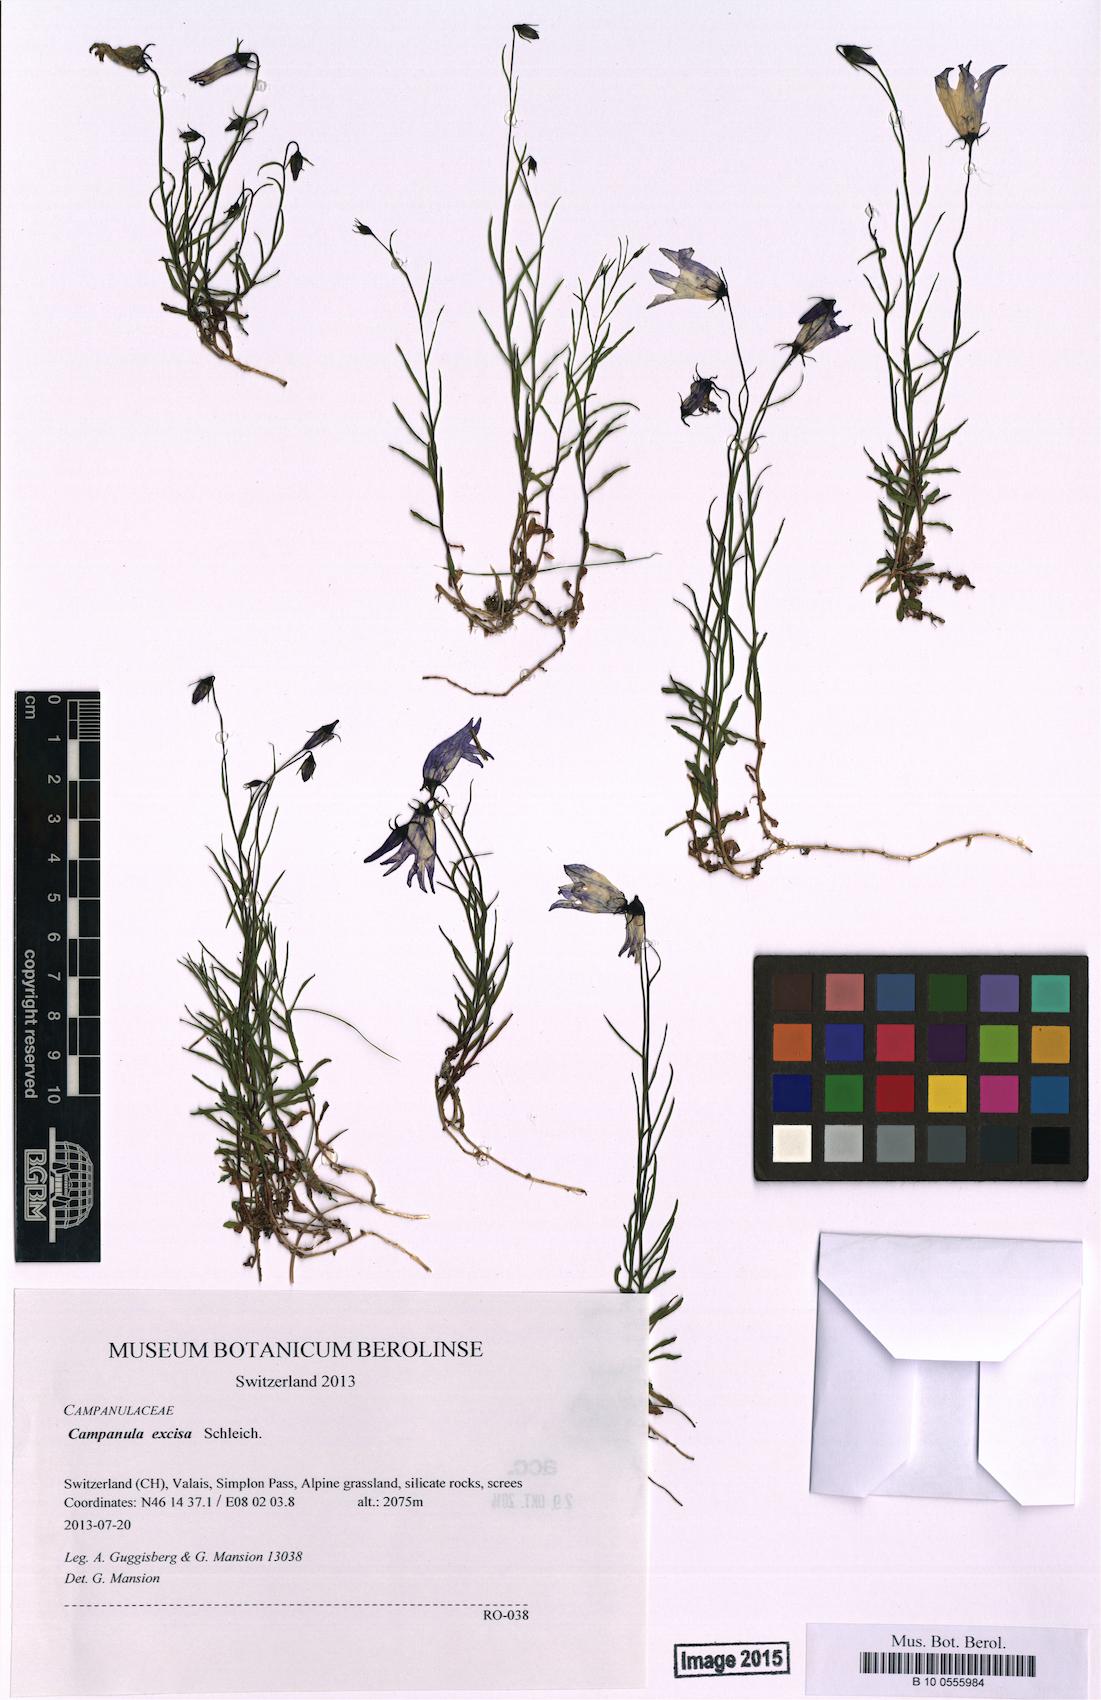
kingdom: Plantae
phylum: Tracheophyta
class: Magnoliopsida
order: Asterales
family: Campanulaceae
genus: Campanula
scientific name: Campanula excisa
